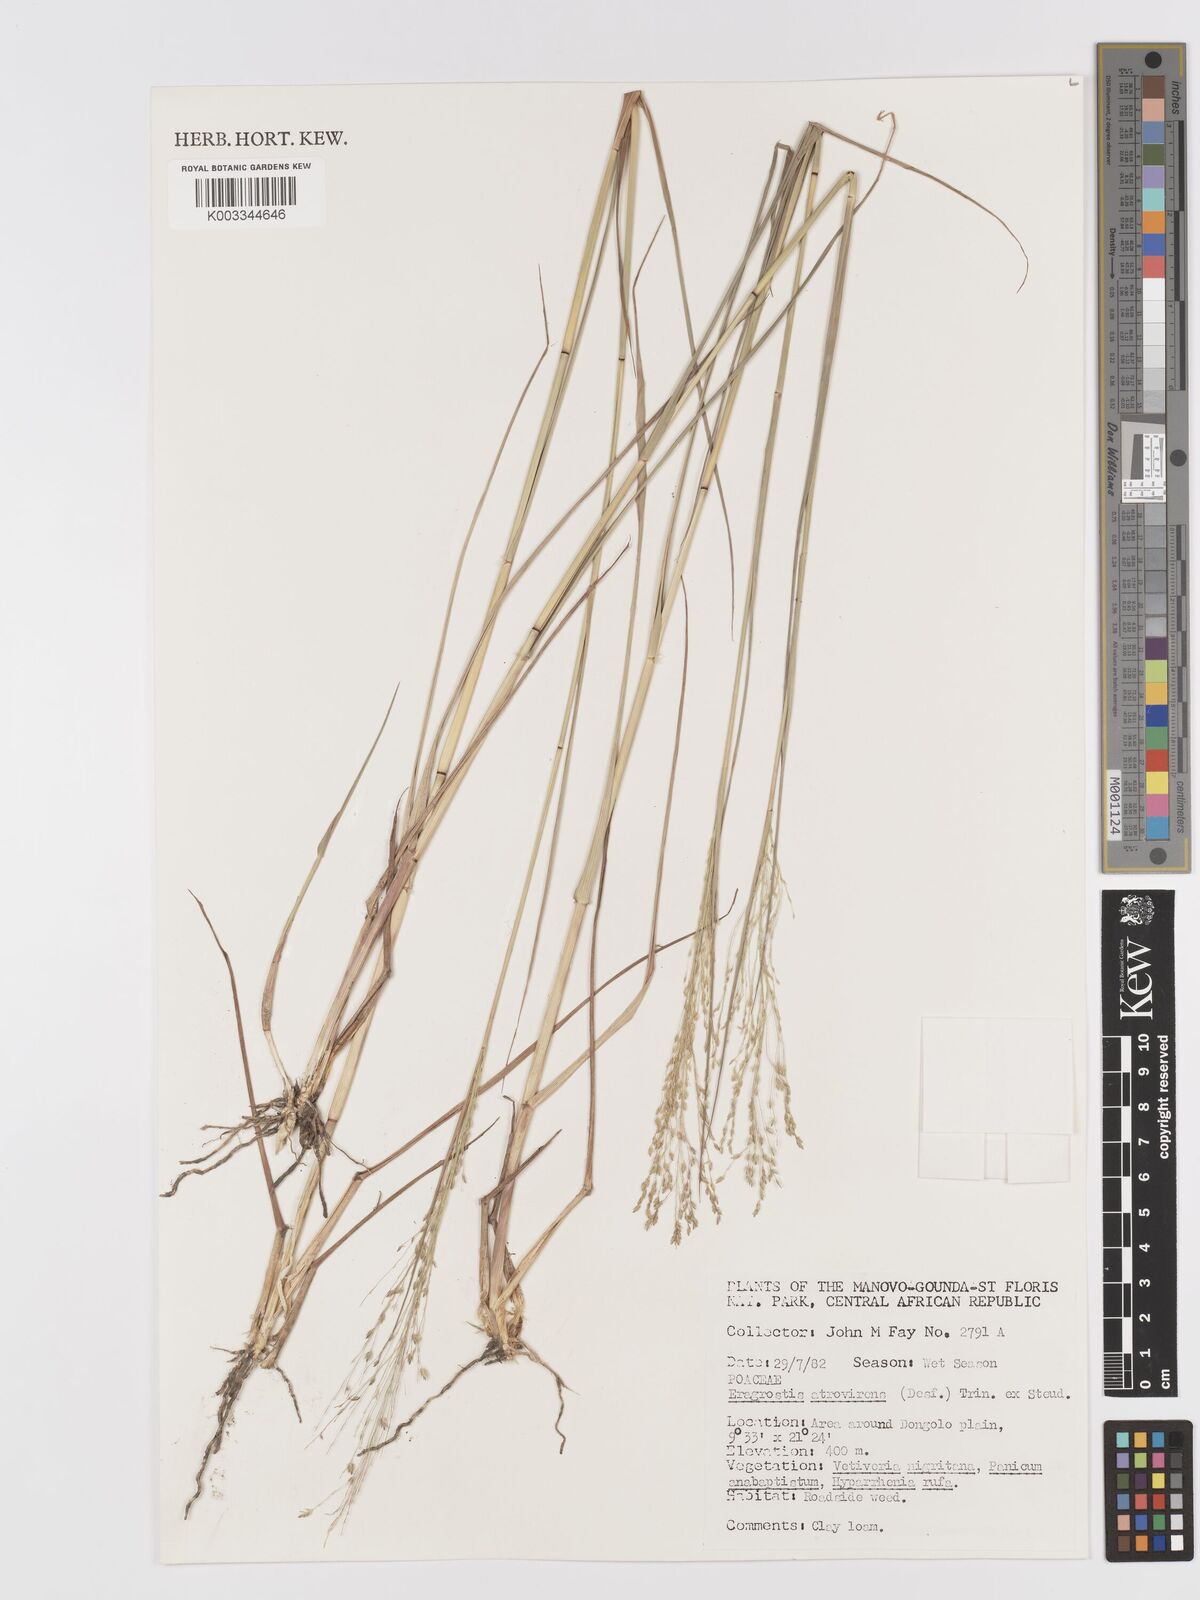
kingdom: Plantae
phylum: Tracheophyta
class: Liliopsida
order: Poales
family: Poaceae
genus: Eragrostis
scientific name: Eragrostis atrovirens
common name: Thalia lovegrass
